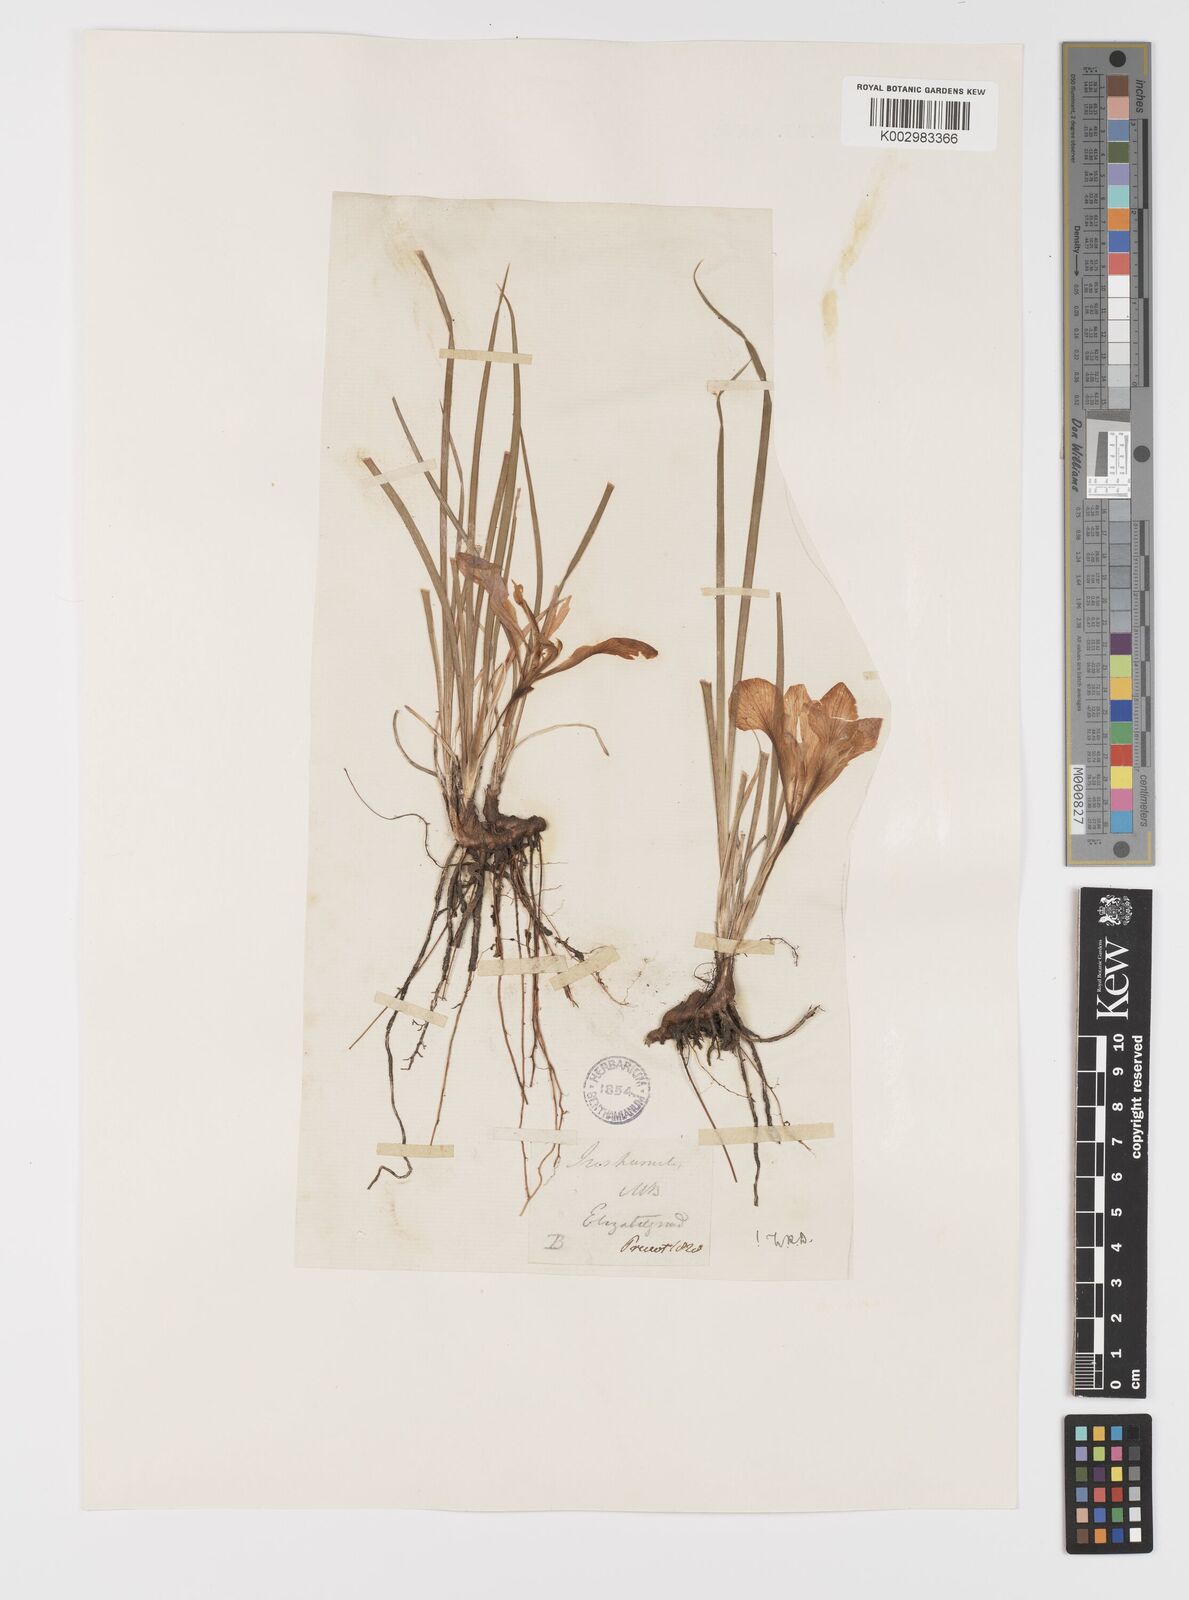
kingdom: Plantae
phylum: Tracheophyta
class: Liliopsida
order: Asparagales
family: Iridaceae
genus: Iris
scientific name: Iris
